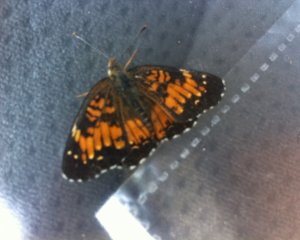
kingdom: Animalia
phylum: Arthropoda
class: Insecta
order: Lepidoptera
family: Nymphalidae
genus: Chlosyne
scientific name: Chlosyne harrisii
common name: Harris's Checkerspot
